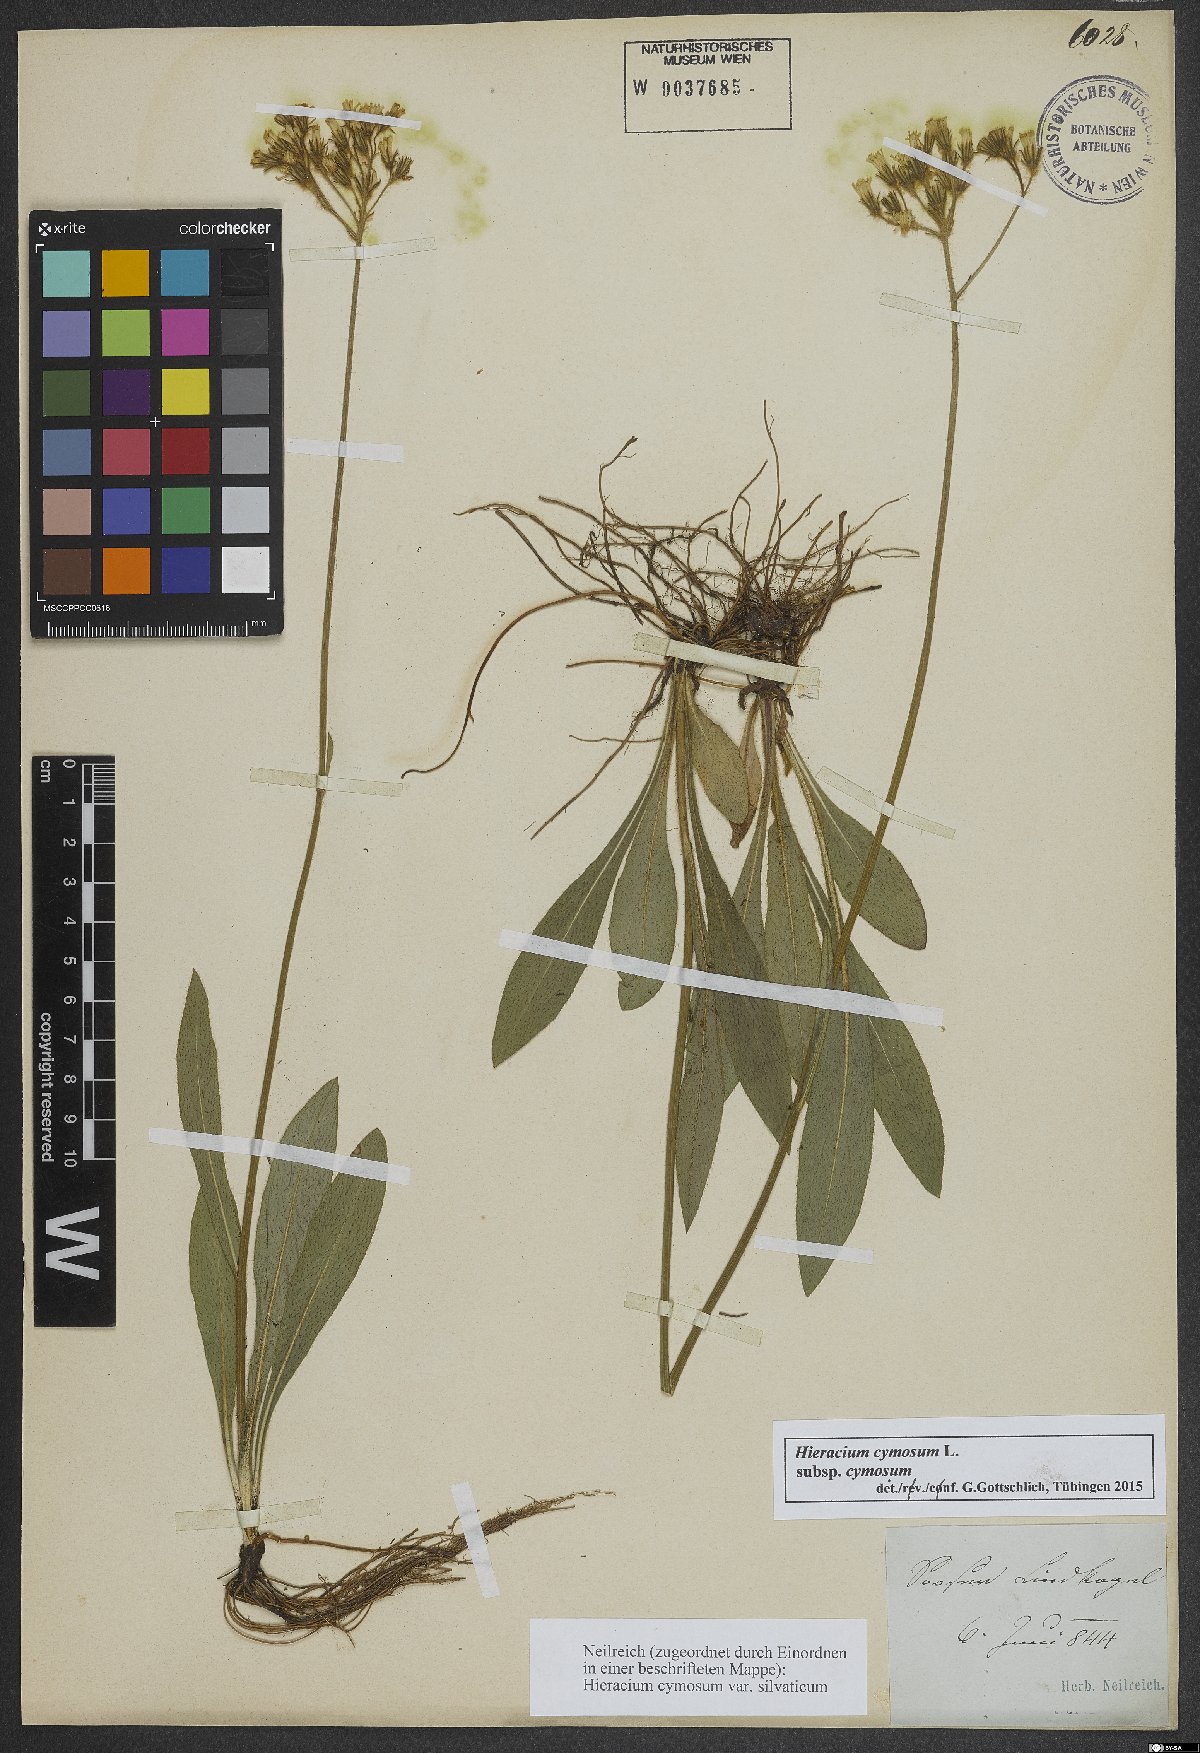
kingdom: Plantae
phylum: Tracheophyta
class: Magnoliopsida
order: Asterales
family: Asteraceae
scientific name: Asteraceae
